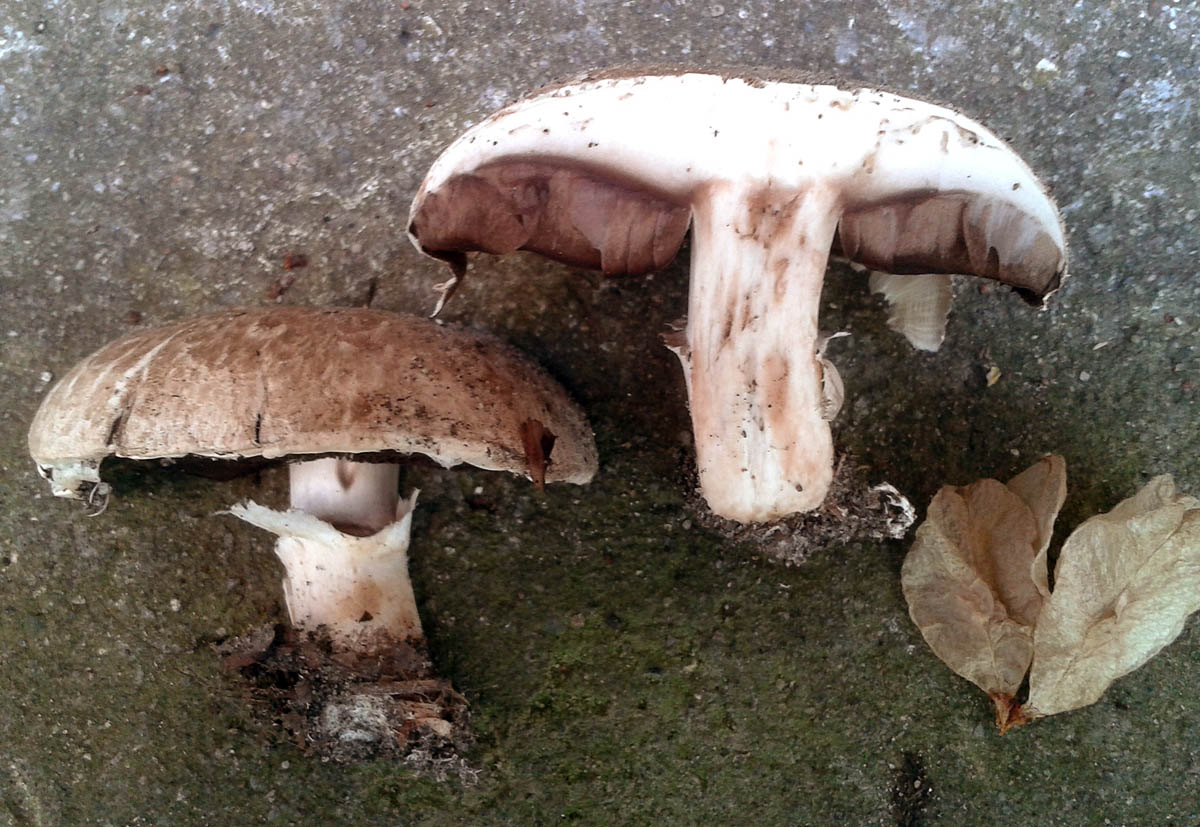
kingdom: Fungi
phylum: Basidiomycota
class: Agaricomycetes
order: Agaricales
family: Agaricaceae
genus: Agaricus
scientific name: Agaricus bisporus
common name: have-champignon
